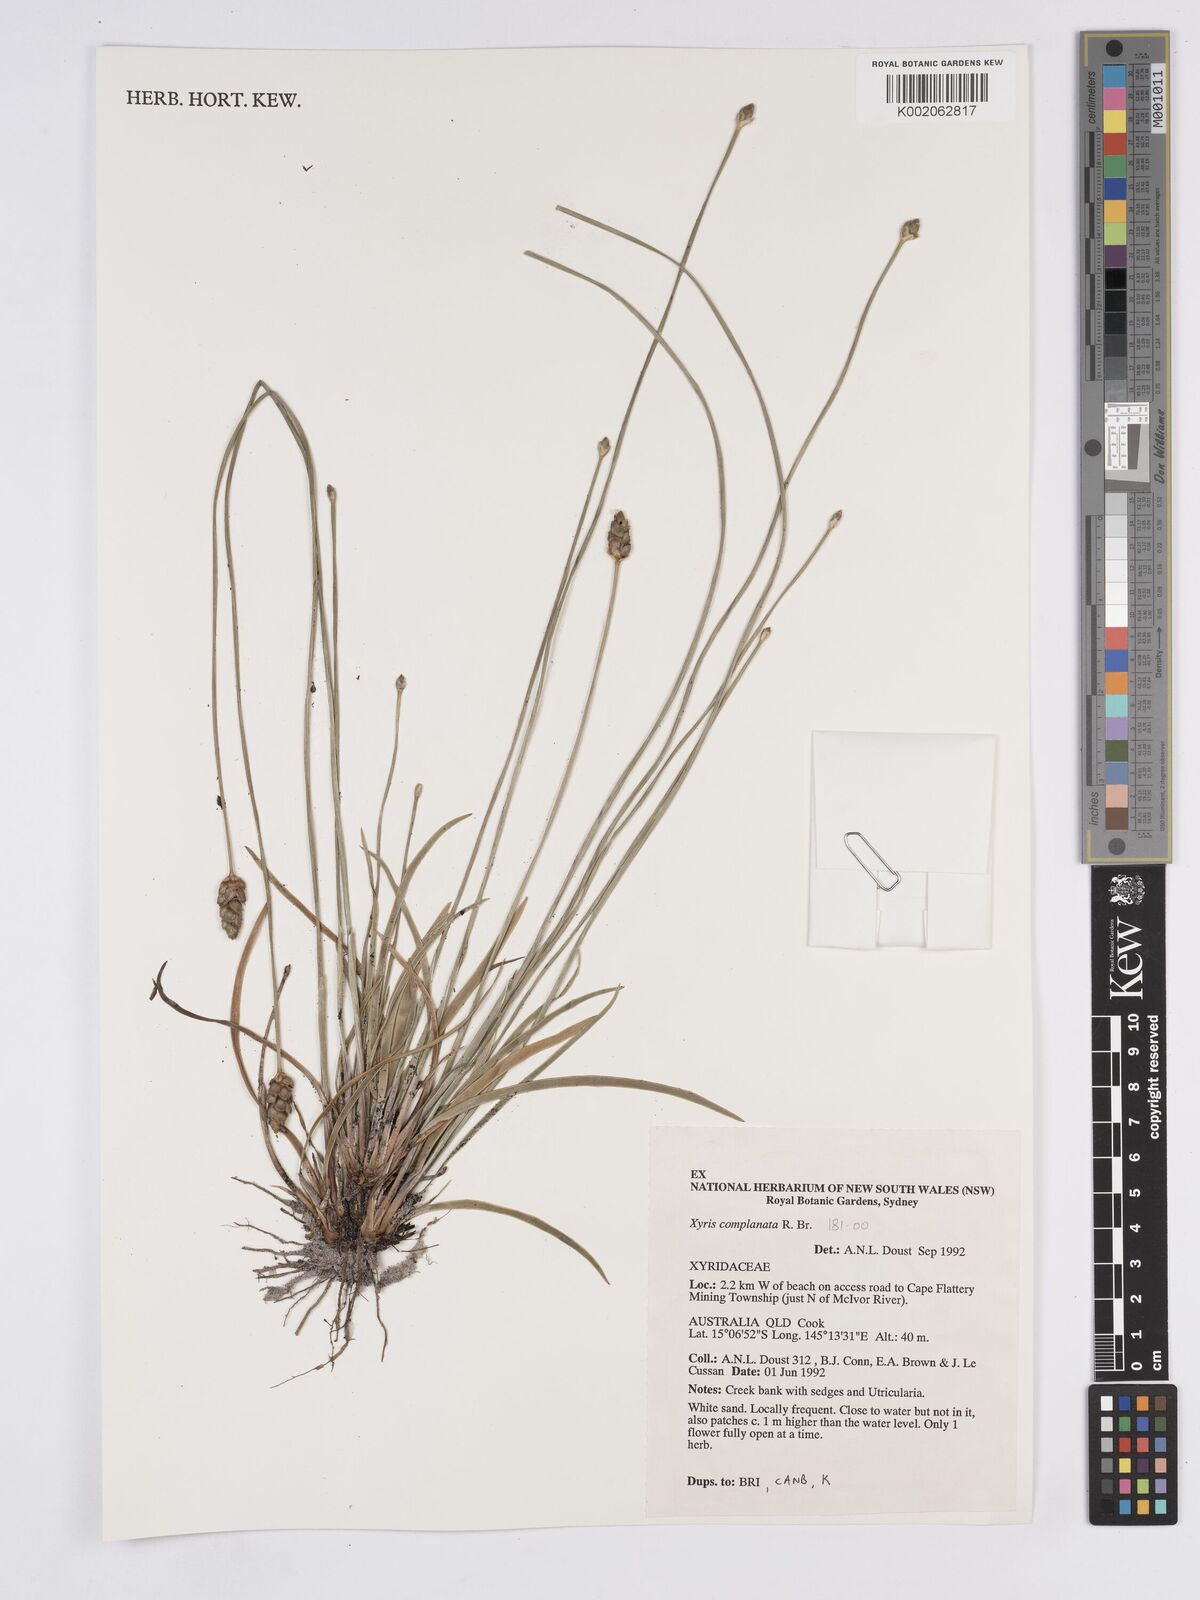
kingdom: Plantae
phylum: Tracheophyta
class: Liliopsida
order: Poales
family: Xyridaceae
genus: Xyris
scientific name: Xyris complanata
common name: Hawai'i yelloweyed grass
